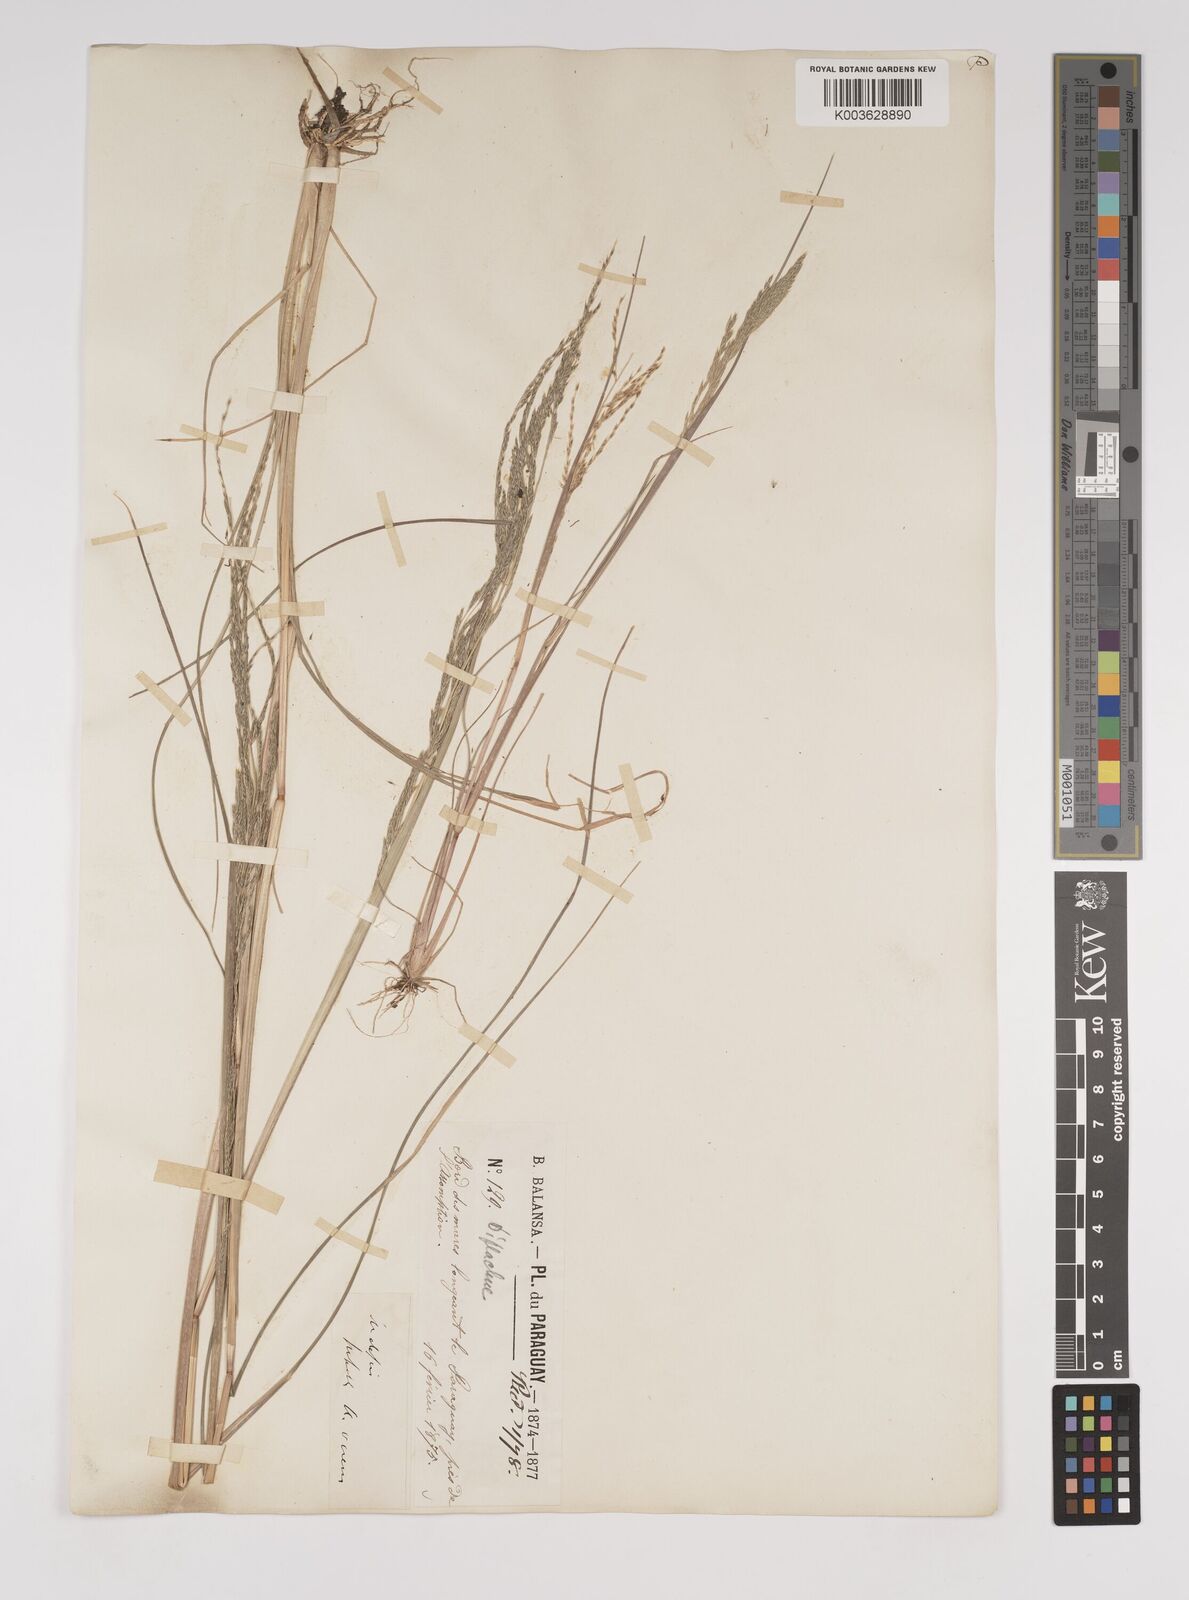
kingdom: Plantae
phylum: Tracheophyta
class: Liliopsida
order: Poales
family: Poaceae
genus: Diplachne
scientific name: Diplachne fusca
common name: Brown beetle grass
